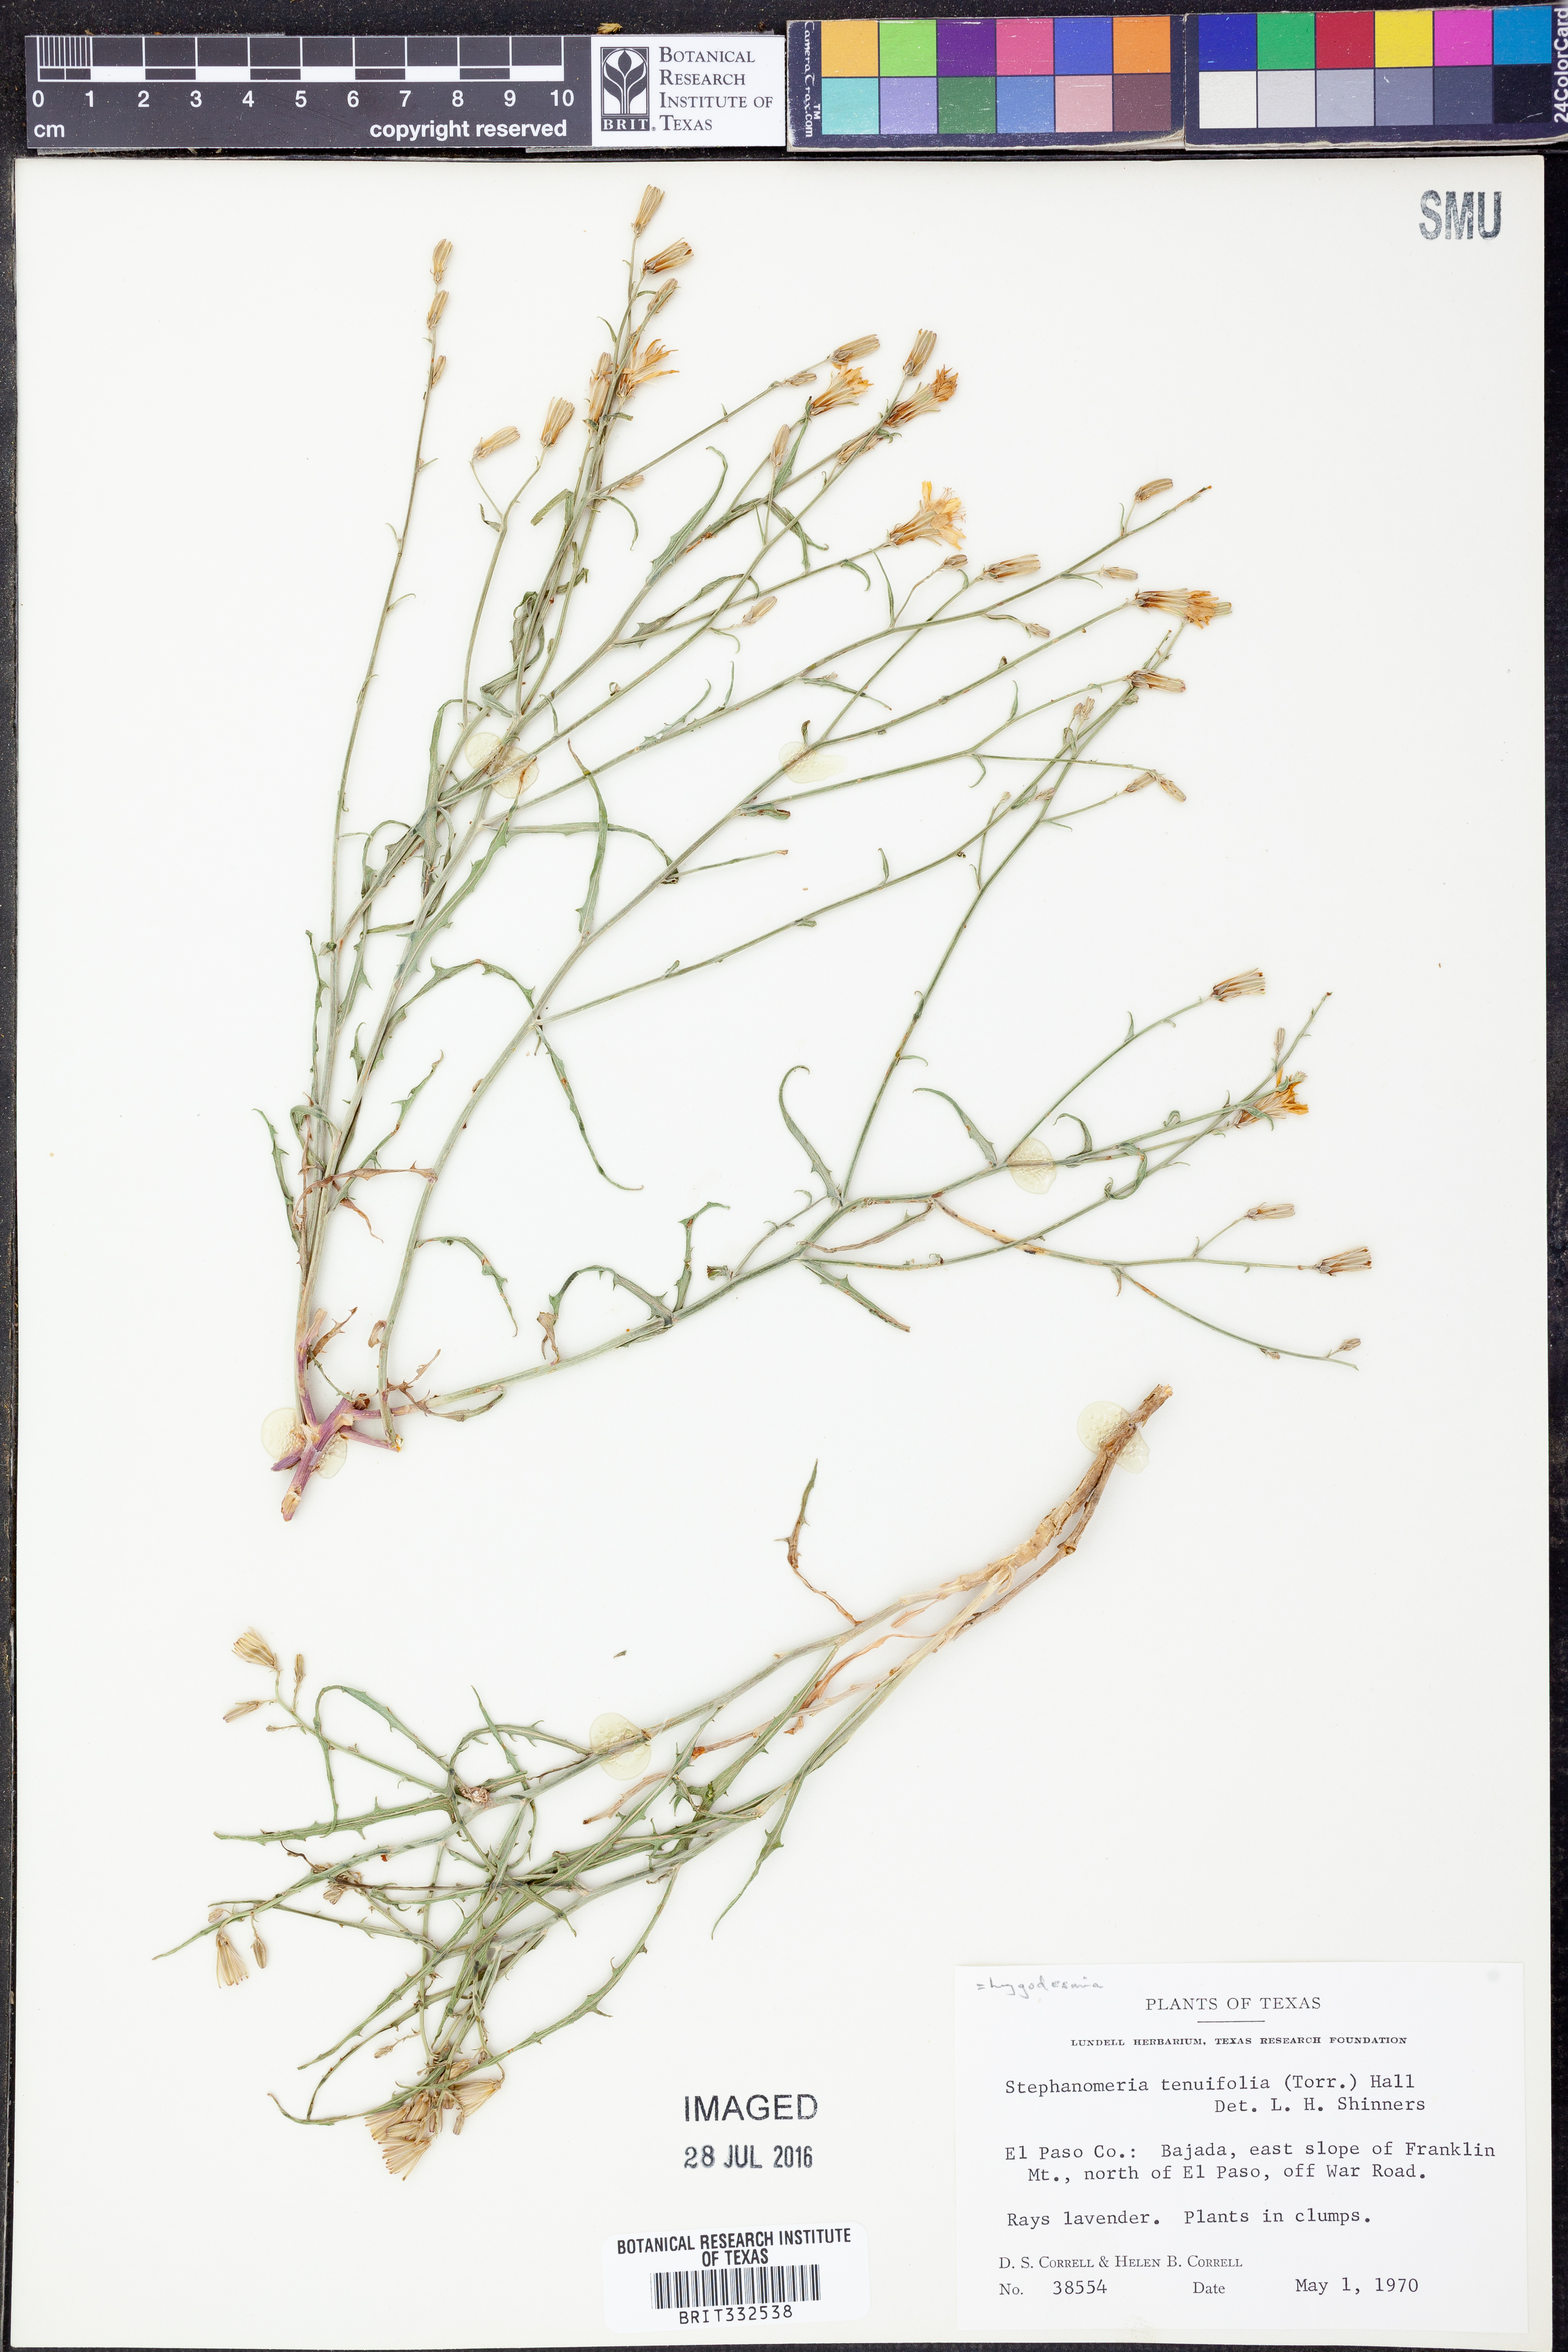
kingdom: Plantae
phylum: Tracheophyta
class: Magnoliopsida
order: Asterales
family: Asteraceae
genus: Stephanomeria
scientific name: Stephanomeria pauciflora
